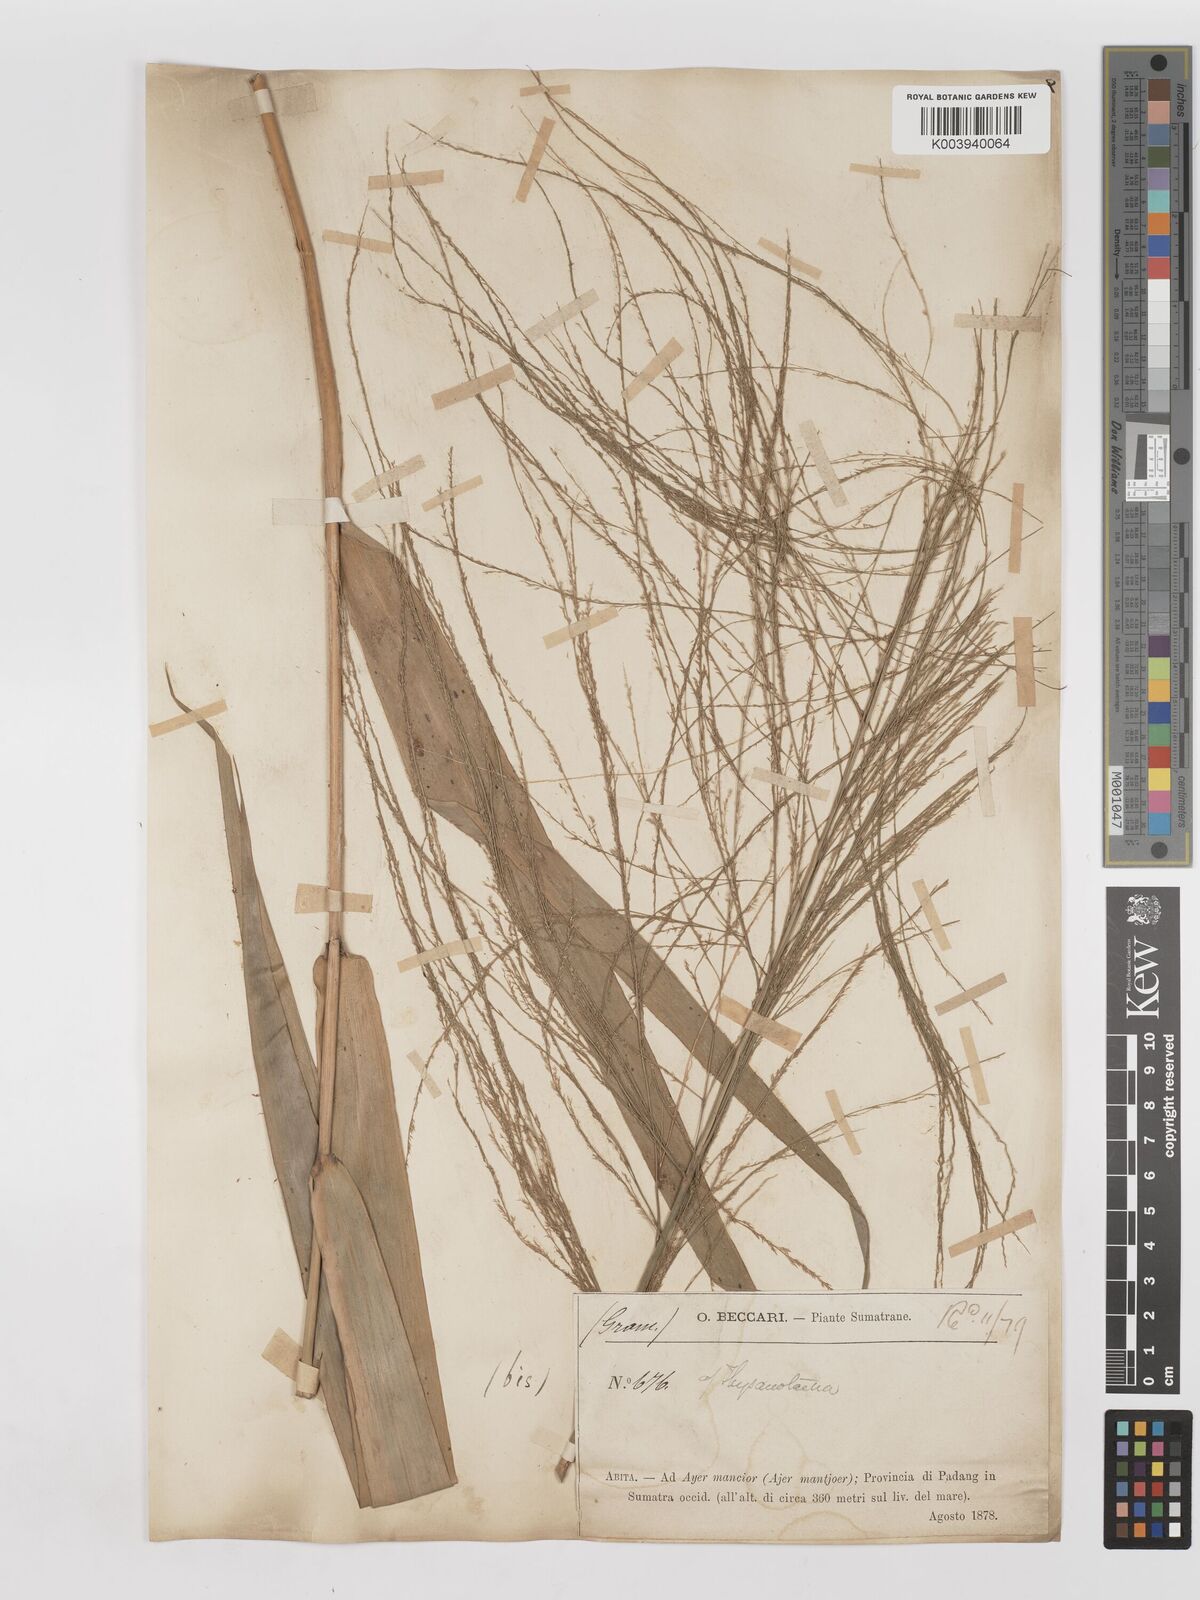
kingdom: Plantae
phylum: Tracheophyta
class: Liliopsida
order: Poales
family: Poaceae
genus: Thysanolaena
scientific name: Thysanolaena latifolia
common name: Tiger grass
